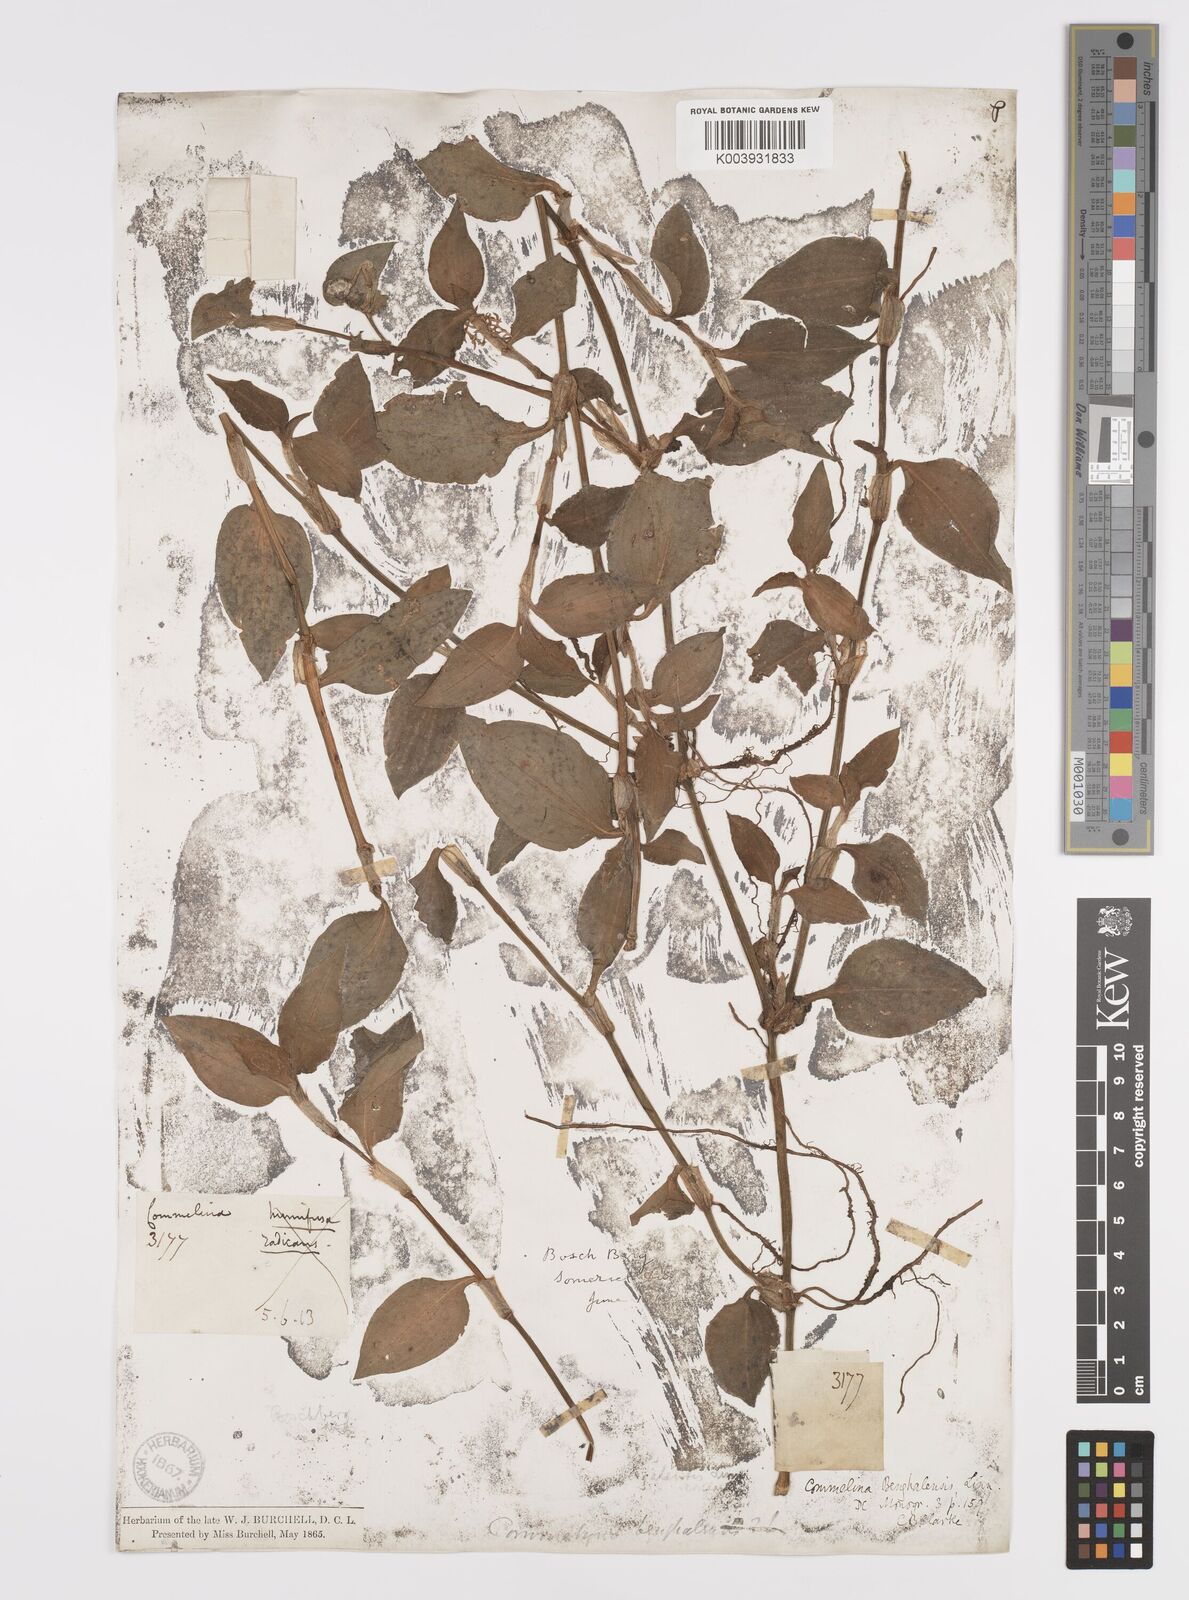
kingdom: Plantae
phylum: Tracheophyta
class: Liliopsida
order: Commelinales
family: Commelinaceae
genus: Commelina
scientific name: Commelina benghalensis
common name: Jio
